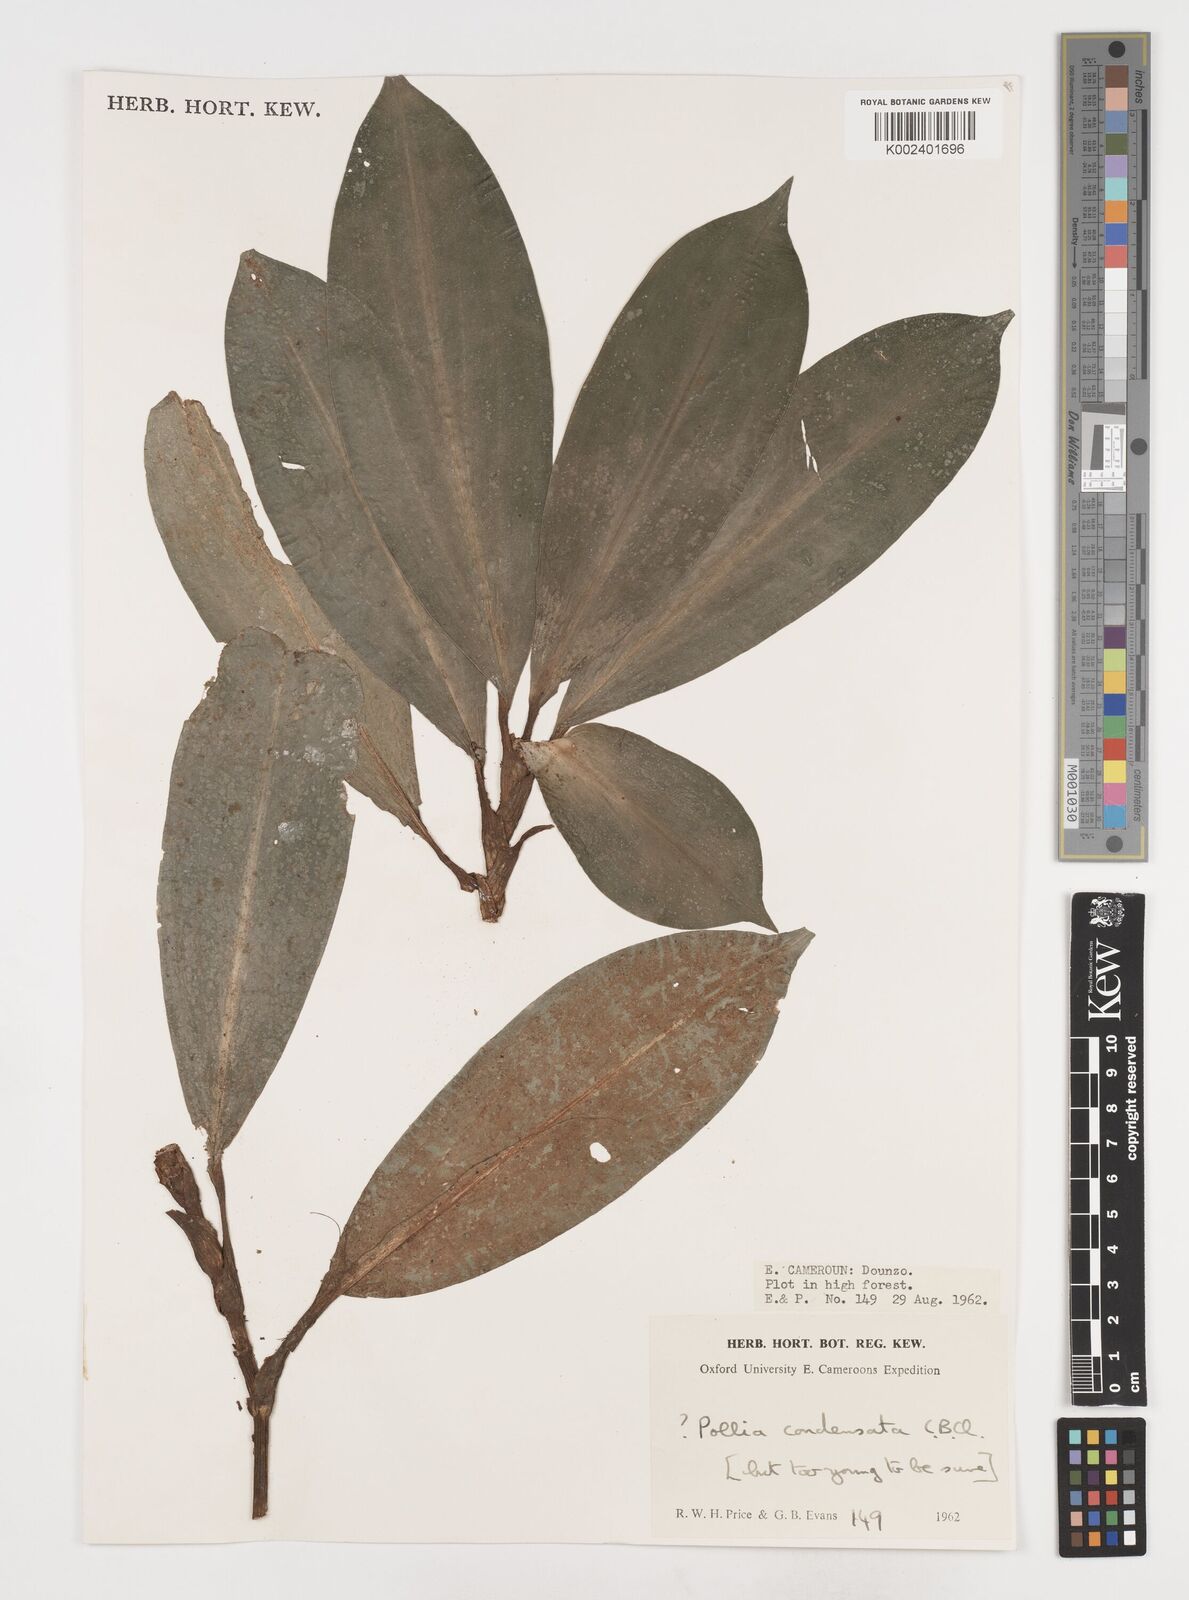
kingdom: Plantae
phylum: Tracheophyta
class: Liliopsida
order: Commelinales
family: Commelinaceae
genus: Pollia
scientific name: Pollia condensata
